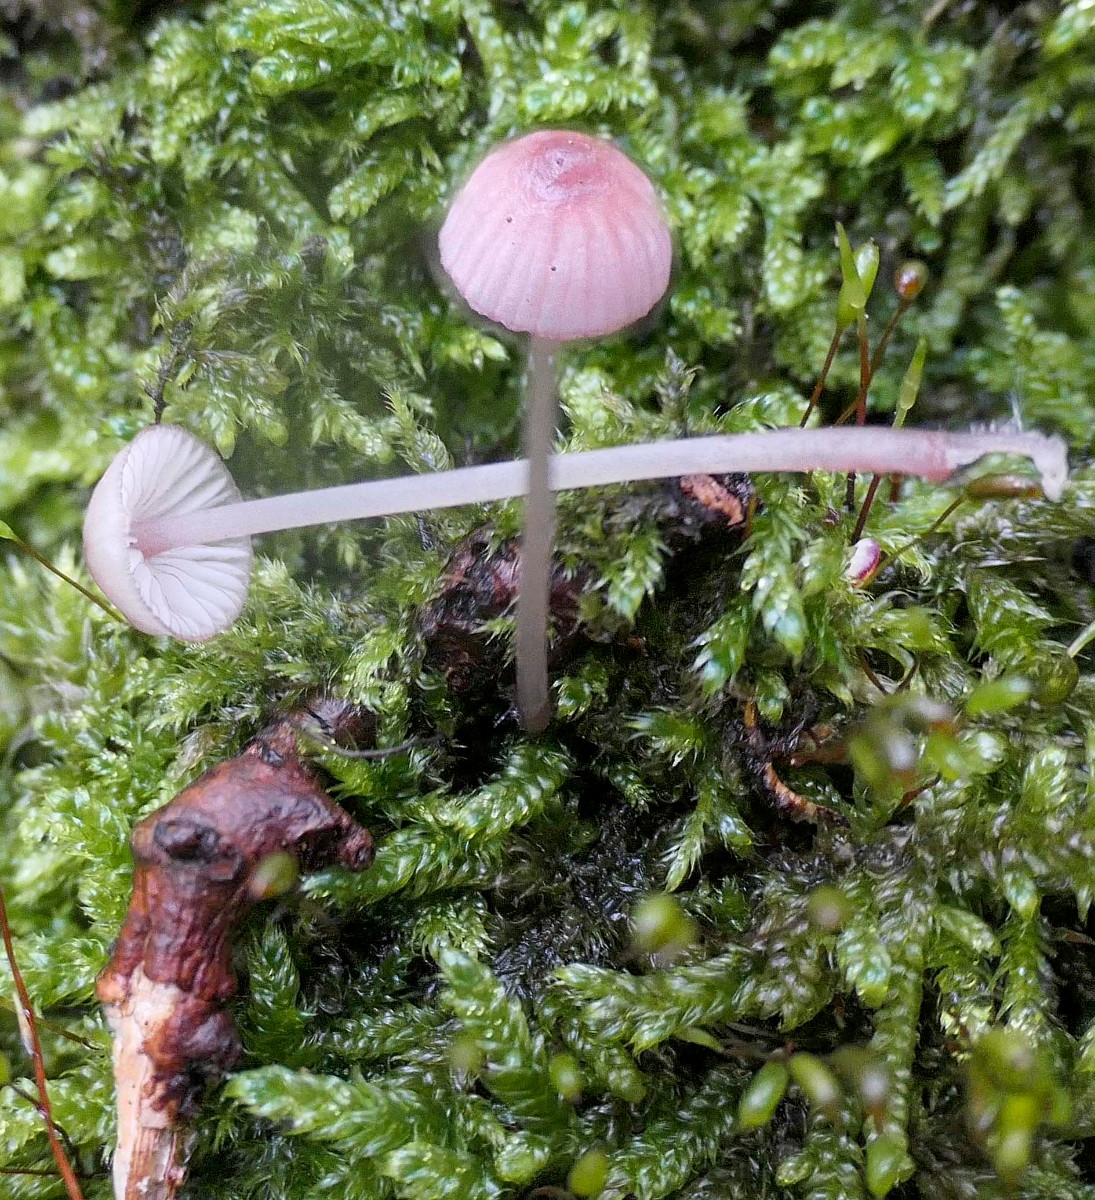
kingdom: Fungi
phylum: Basidiomycota
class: Agaricomycetes
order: Agaricales
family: Mycenaceae
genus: Mycena
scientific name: Mycena rubromarginata
